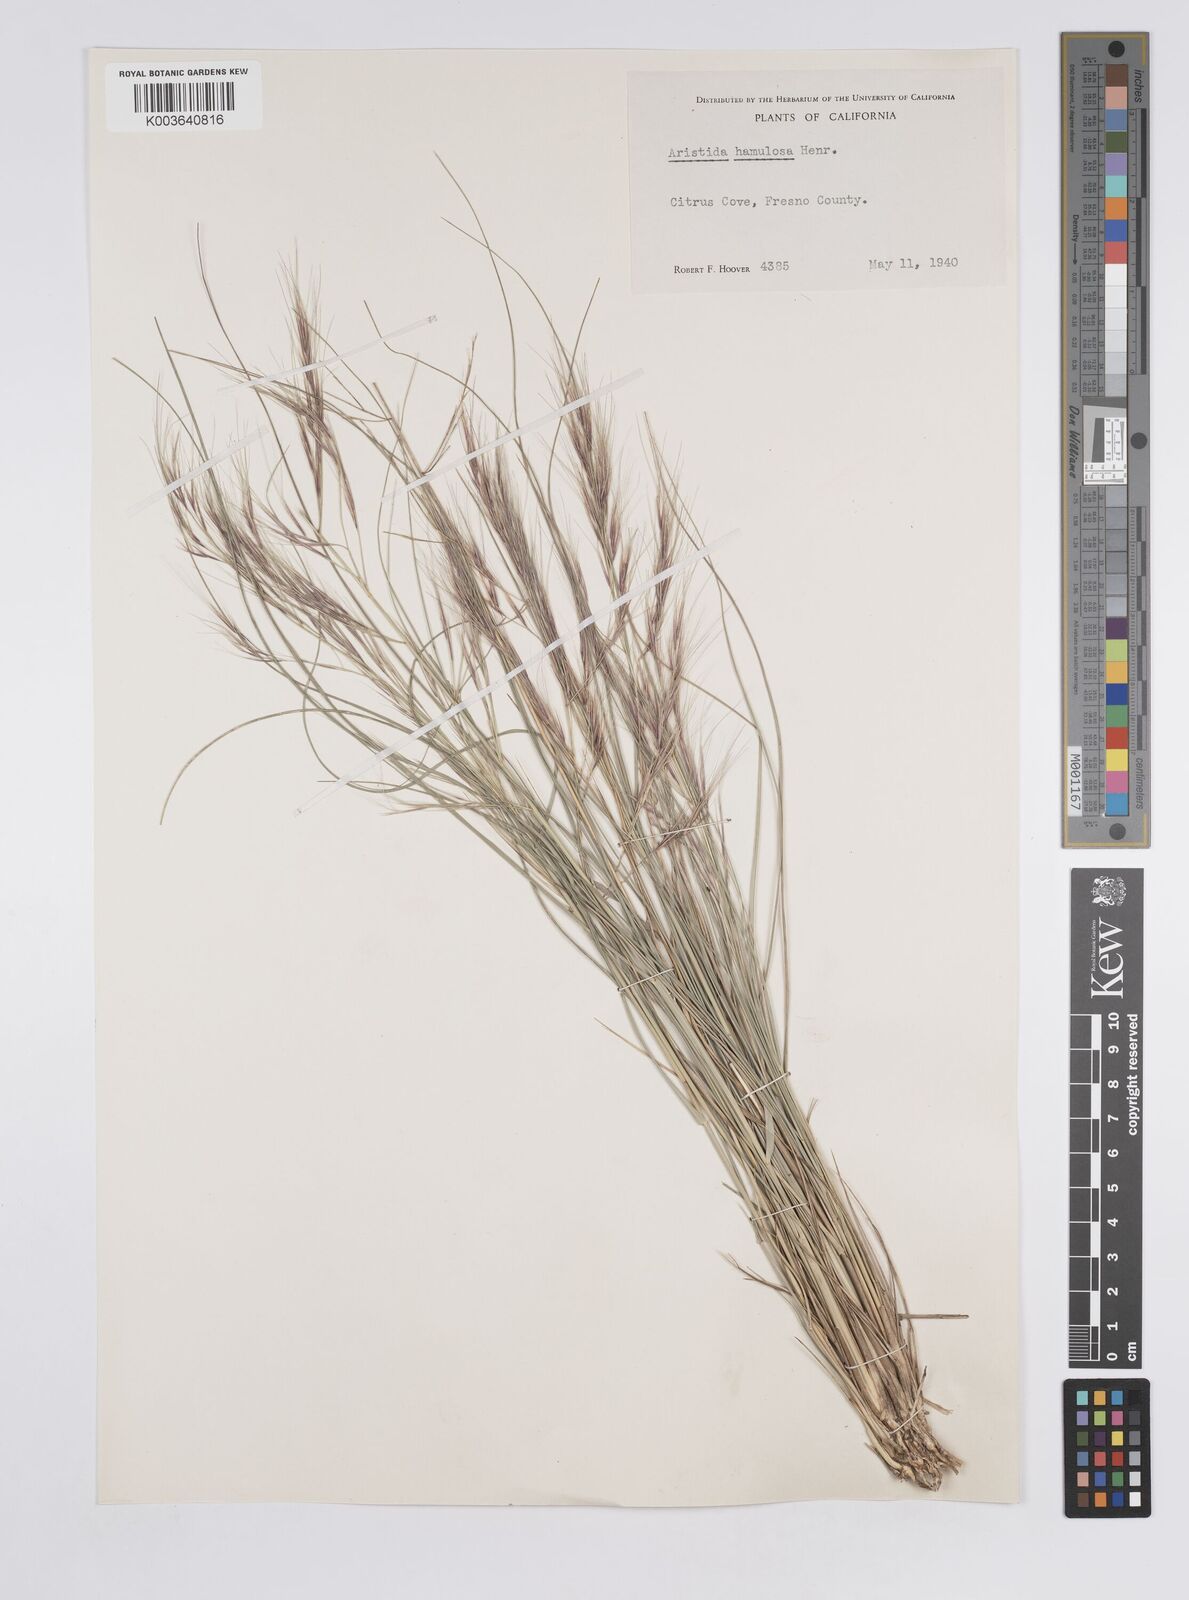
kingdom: Plantae
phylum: Tracheophyta
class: Liliopsida
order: Poales
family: Poaceae
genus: Aristida
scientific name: Aristida hamulosa
